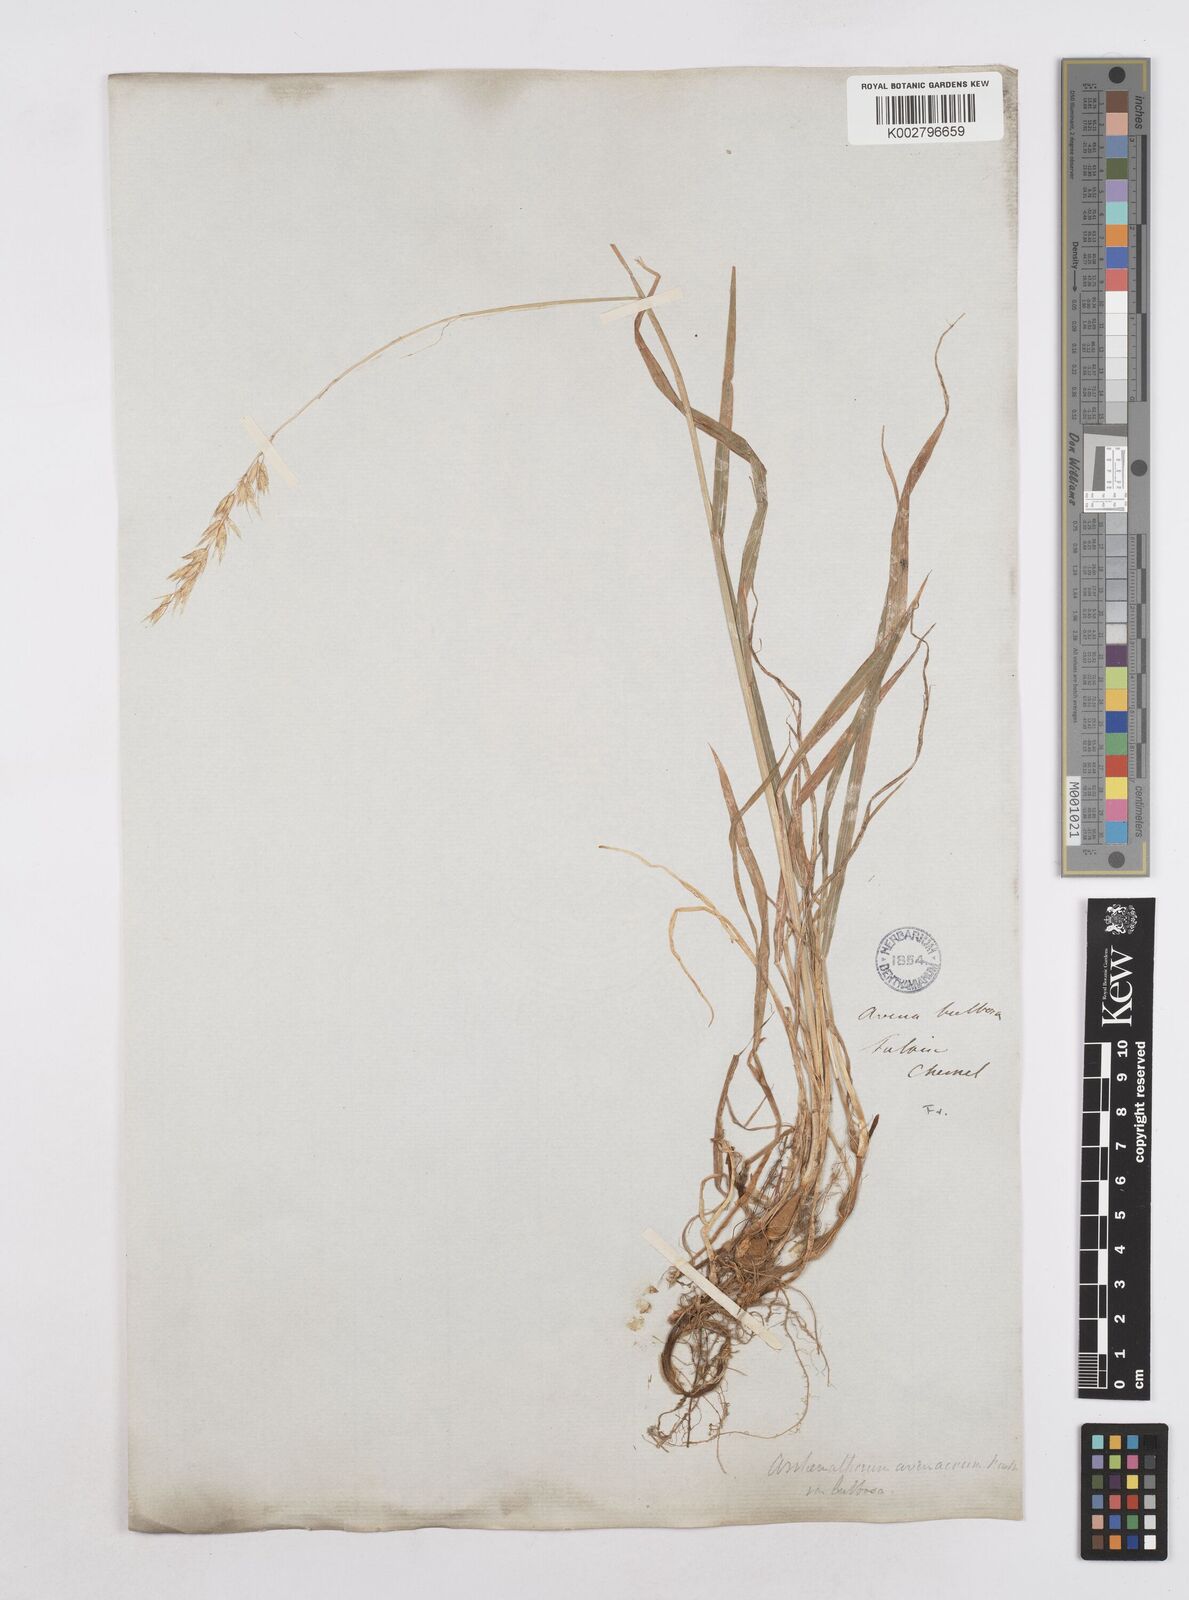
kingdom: Plantae
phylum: Tracheophyta
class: Liliopsida
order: Poales
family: Poaceae
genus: Arrhenatherum
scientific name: Arrhenatherum elatius
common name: Tall oatgrass
